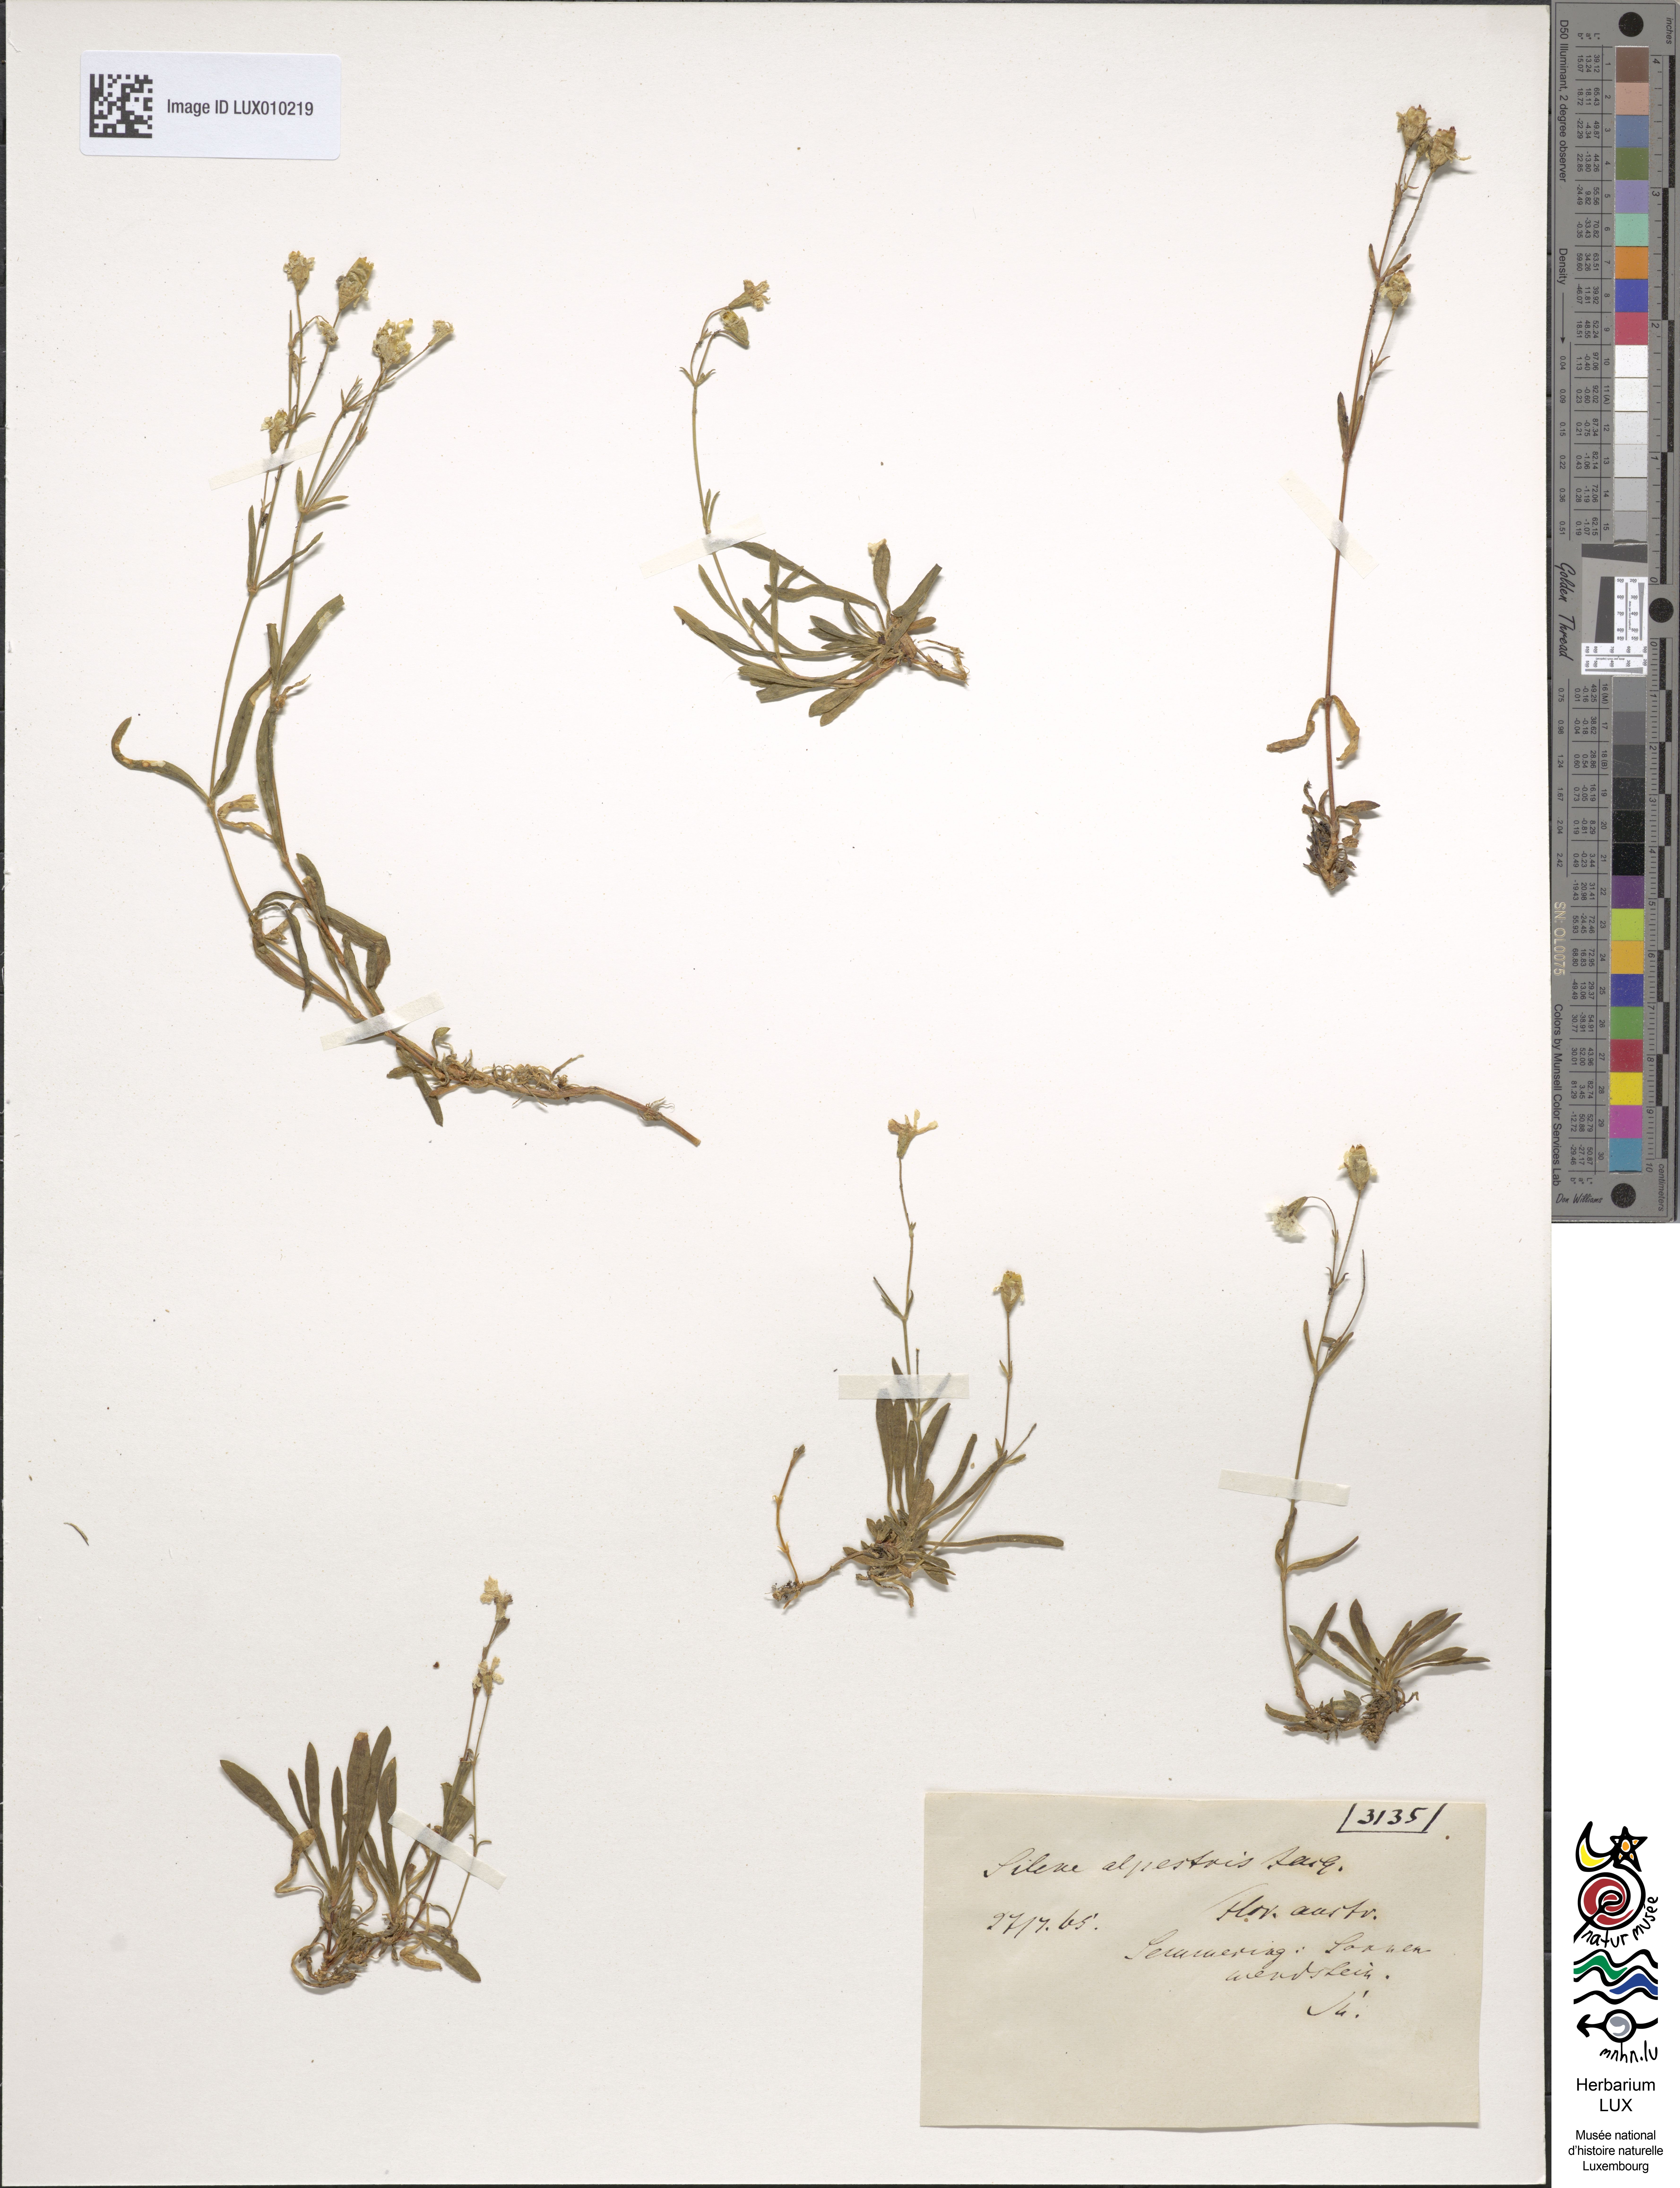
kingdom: Plantae
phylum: Tracheophyta
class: Magnoliopsida
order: Caryophyllales
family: Caryophyllaceae
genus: Heliosperma
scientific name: Heliosperma alpestre
